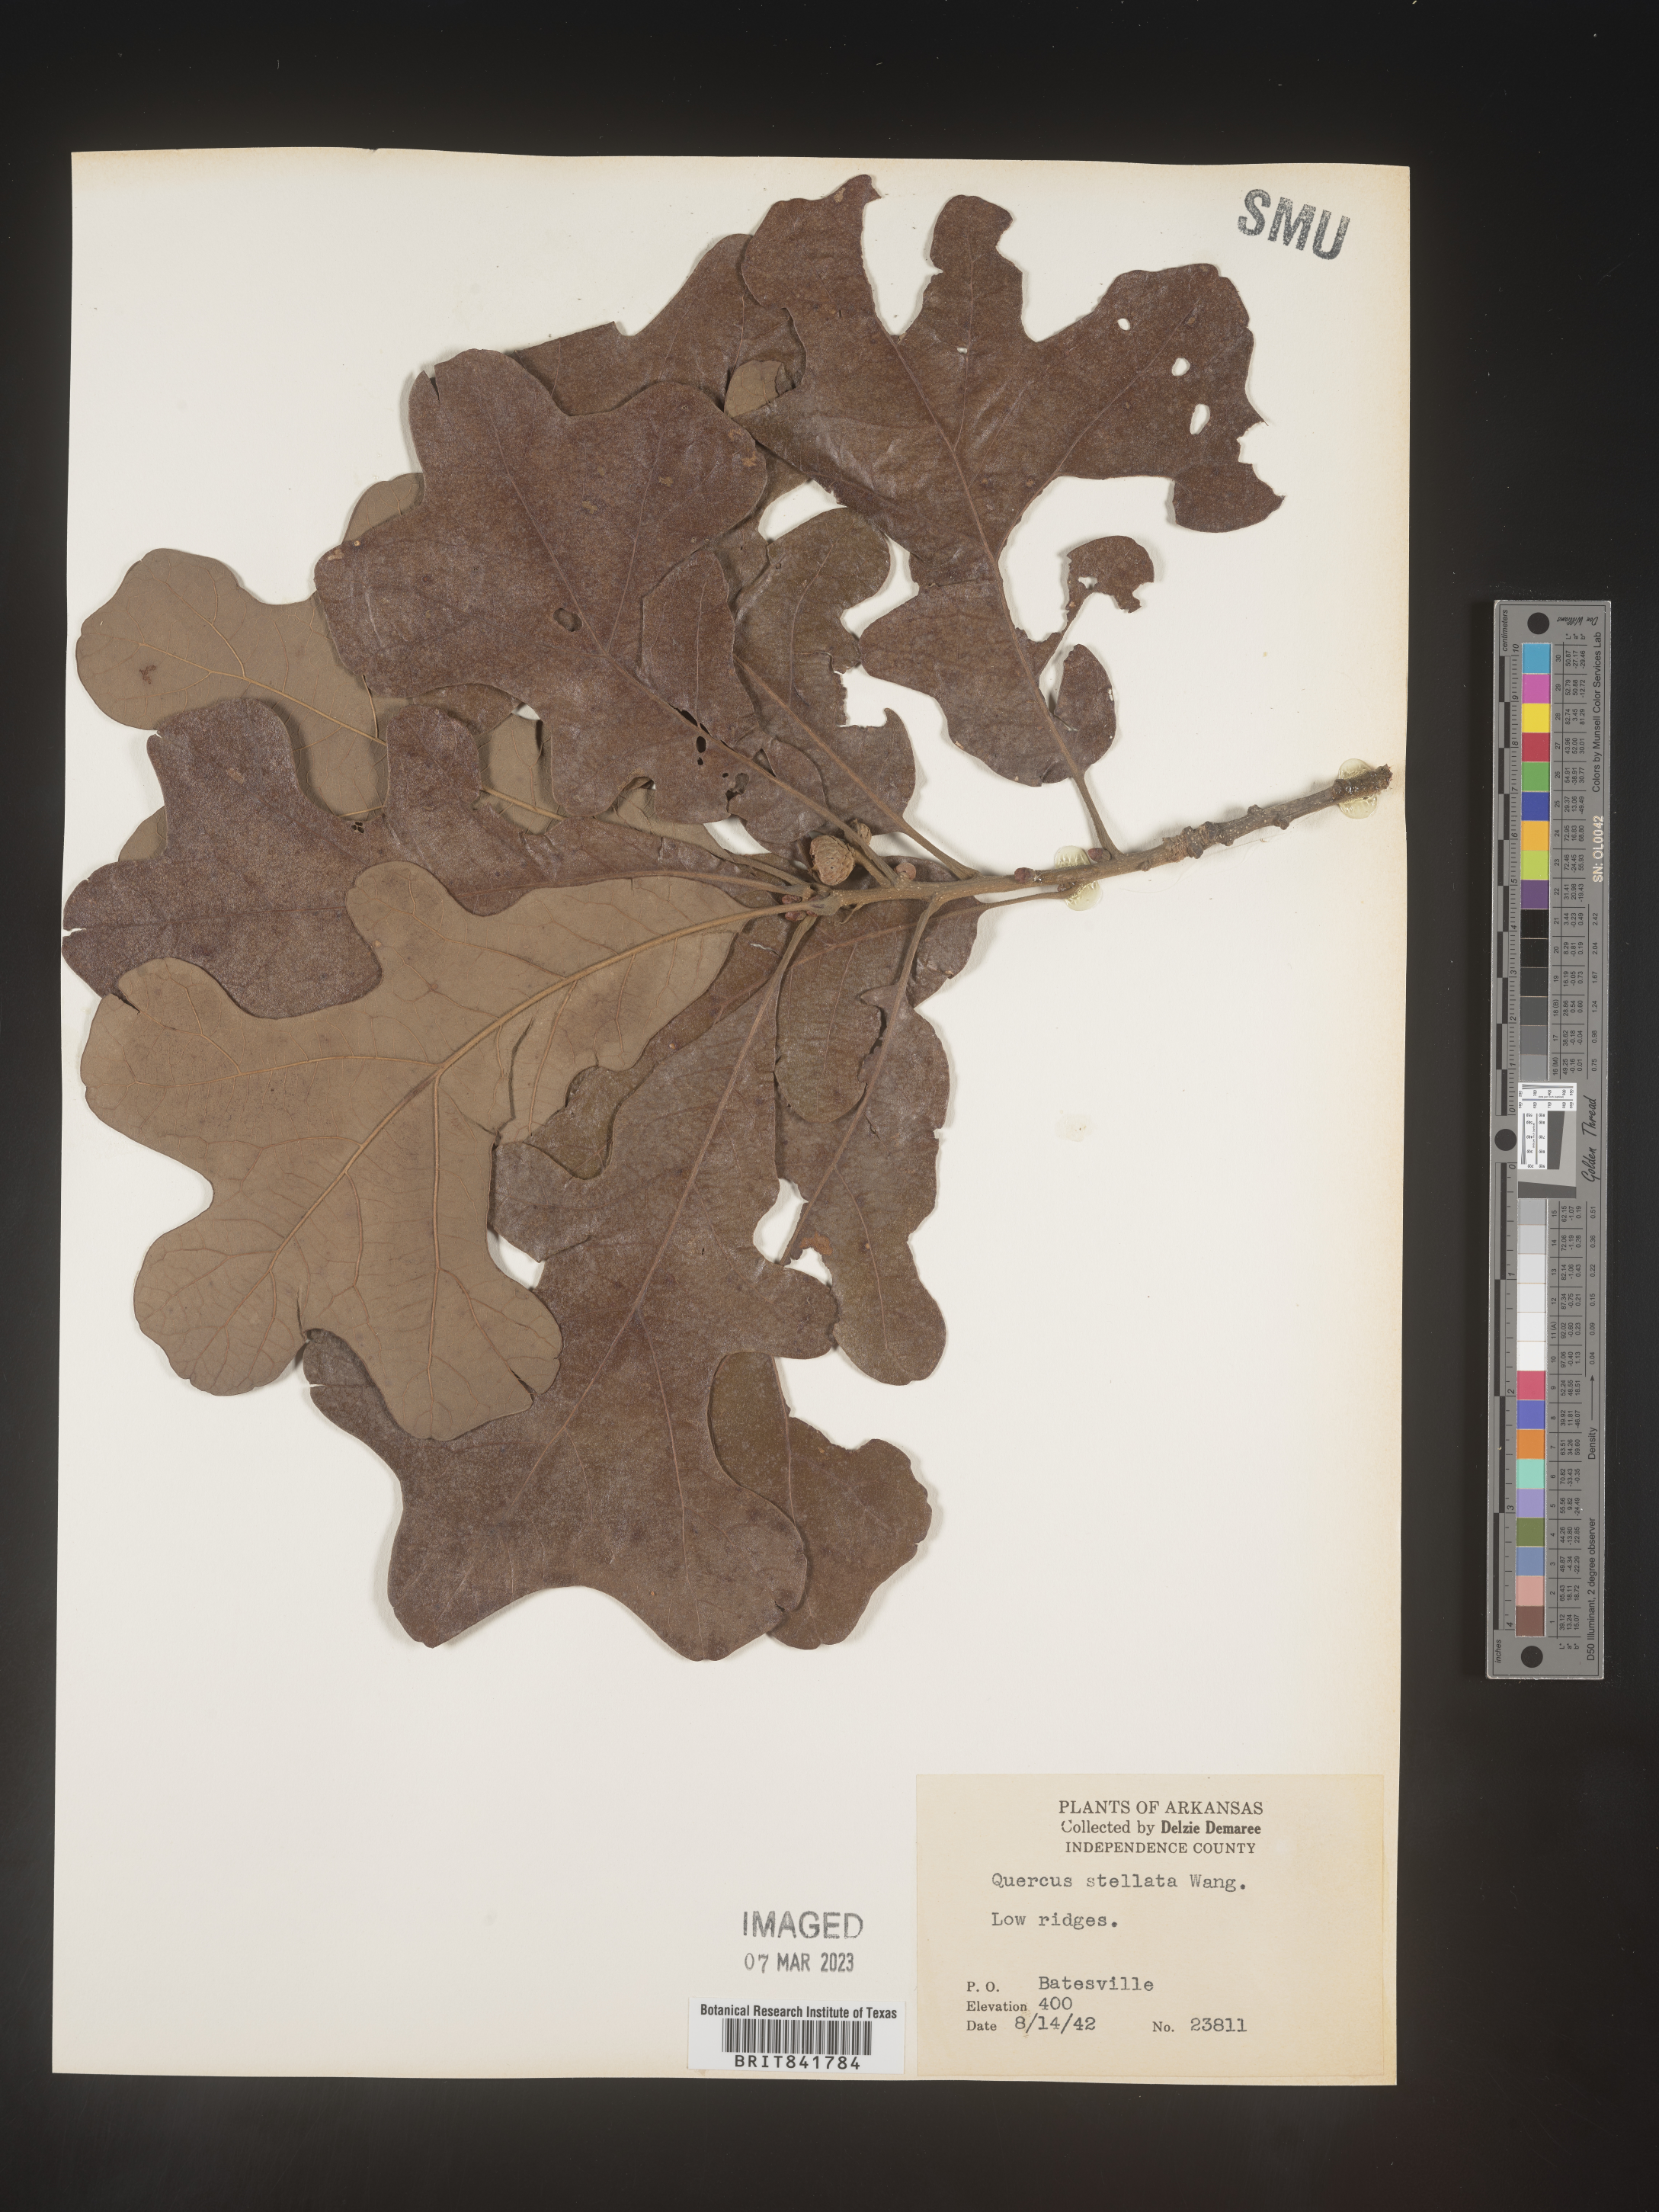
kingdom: Plantae
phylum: Tracheophyta
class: Magnoliopsida
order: Fagales
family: Fagaceae
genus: Quercus
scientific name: Quercus stellata
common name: Post oak
